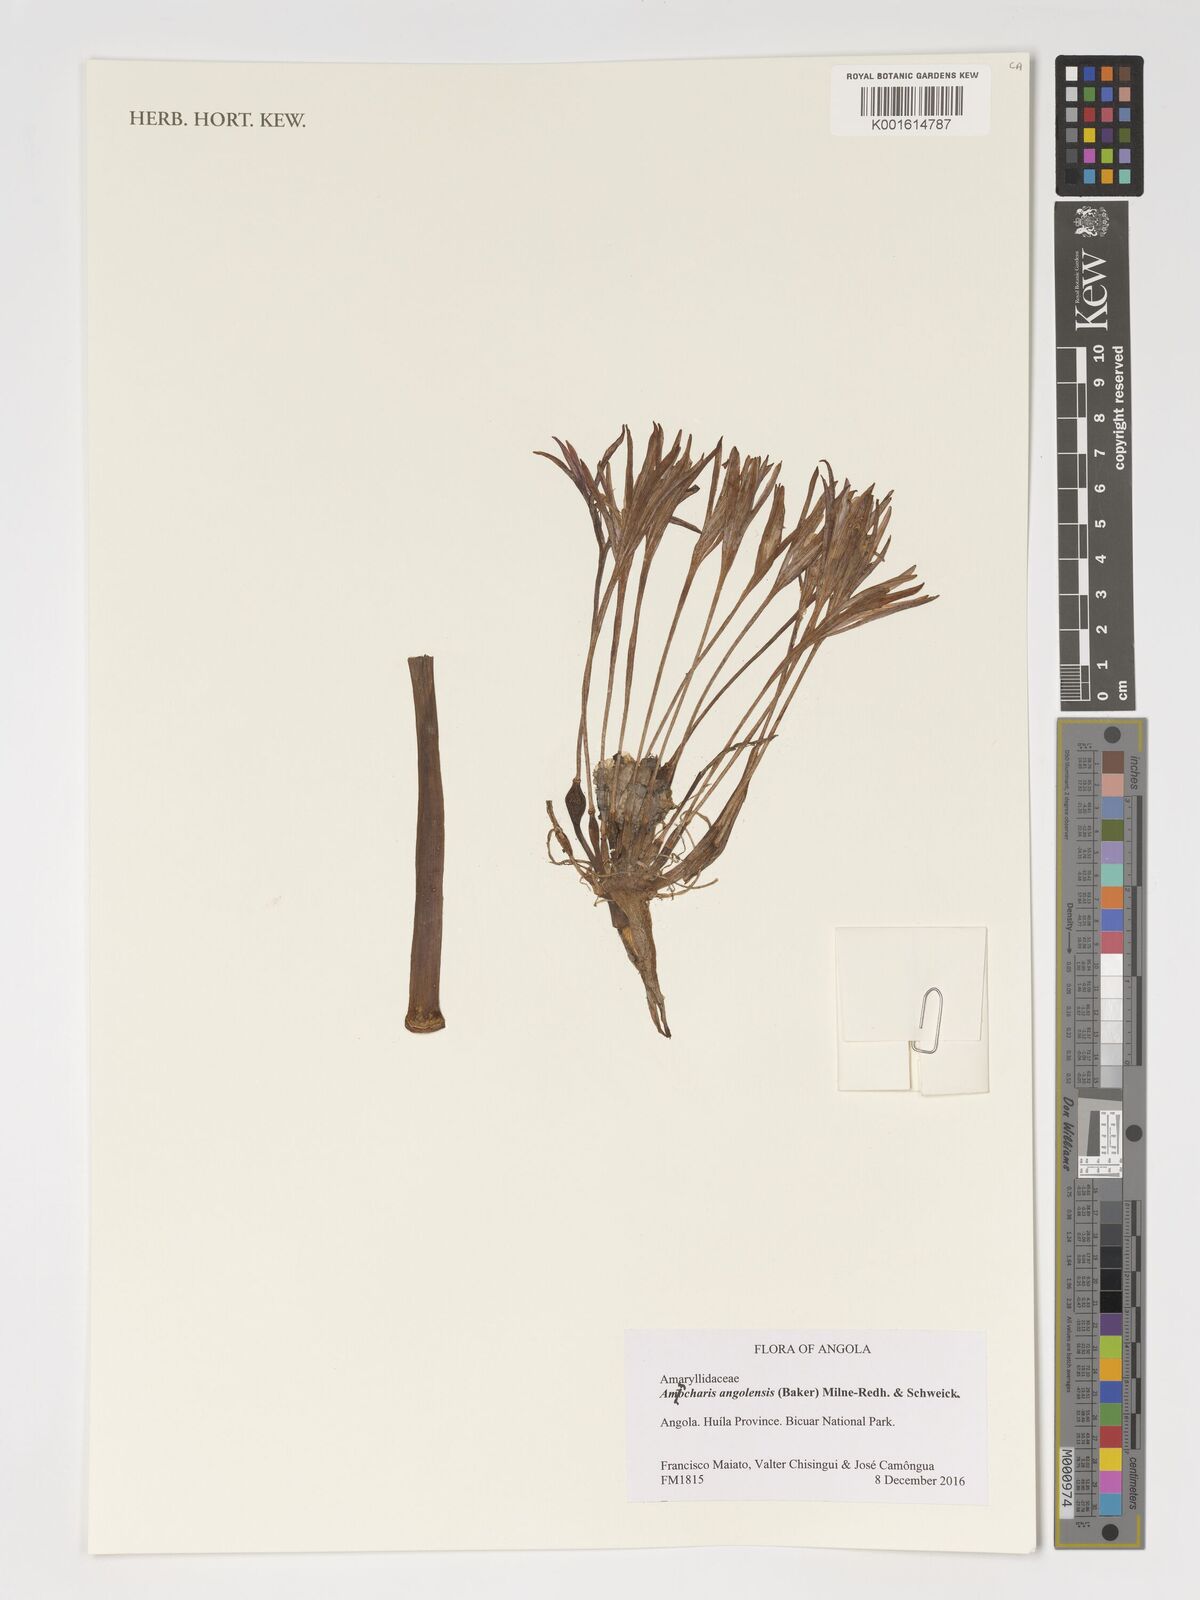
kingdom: Plantae
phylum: Tracheophyta
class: Liliopsida
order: Asparagales
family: Amaryllidaceae
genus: Ammocharis
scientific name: Ammocharis angolensis
